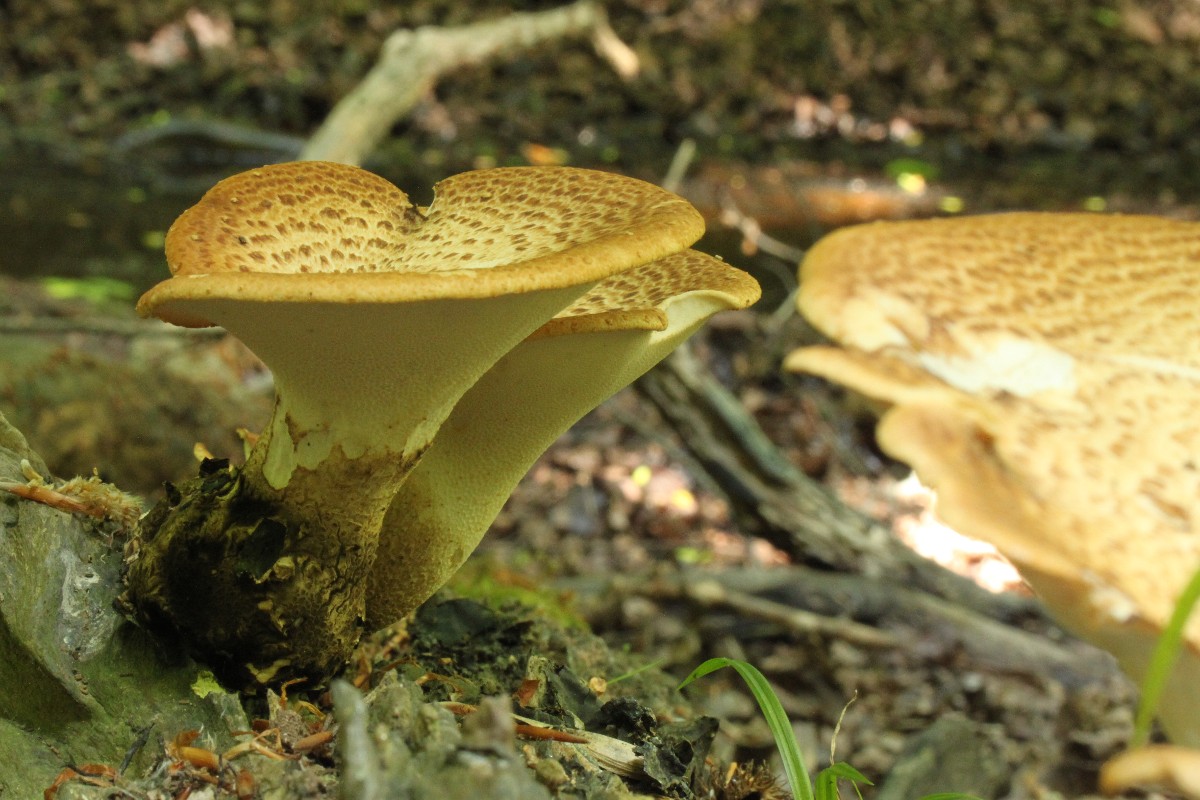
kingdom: Fungi
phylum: Basidiomycota
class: Agaricomycetes
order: Polyporales
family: Polyporaceae
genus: Cerioporus
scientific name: Cerioporus squamosus
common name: skællet stilkporesvamp
